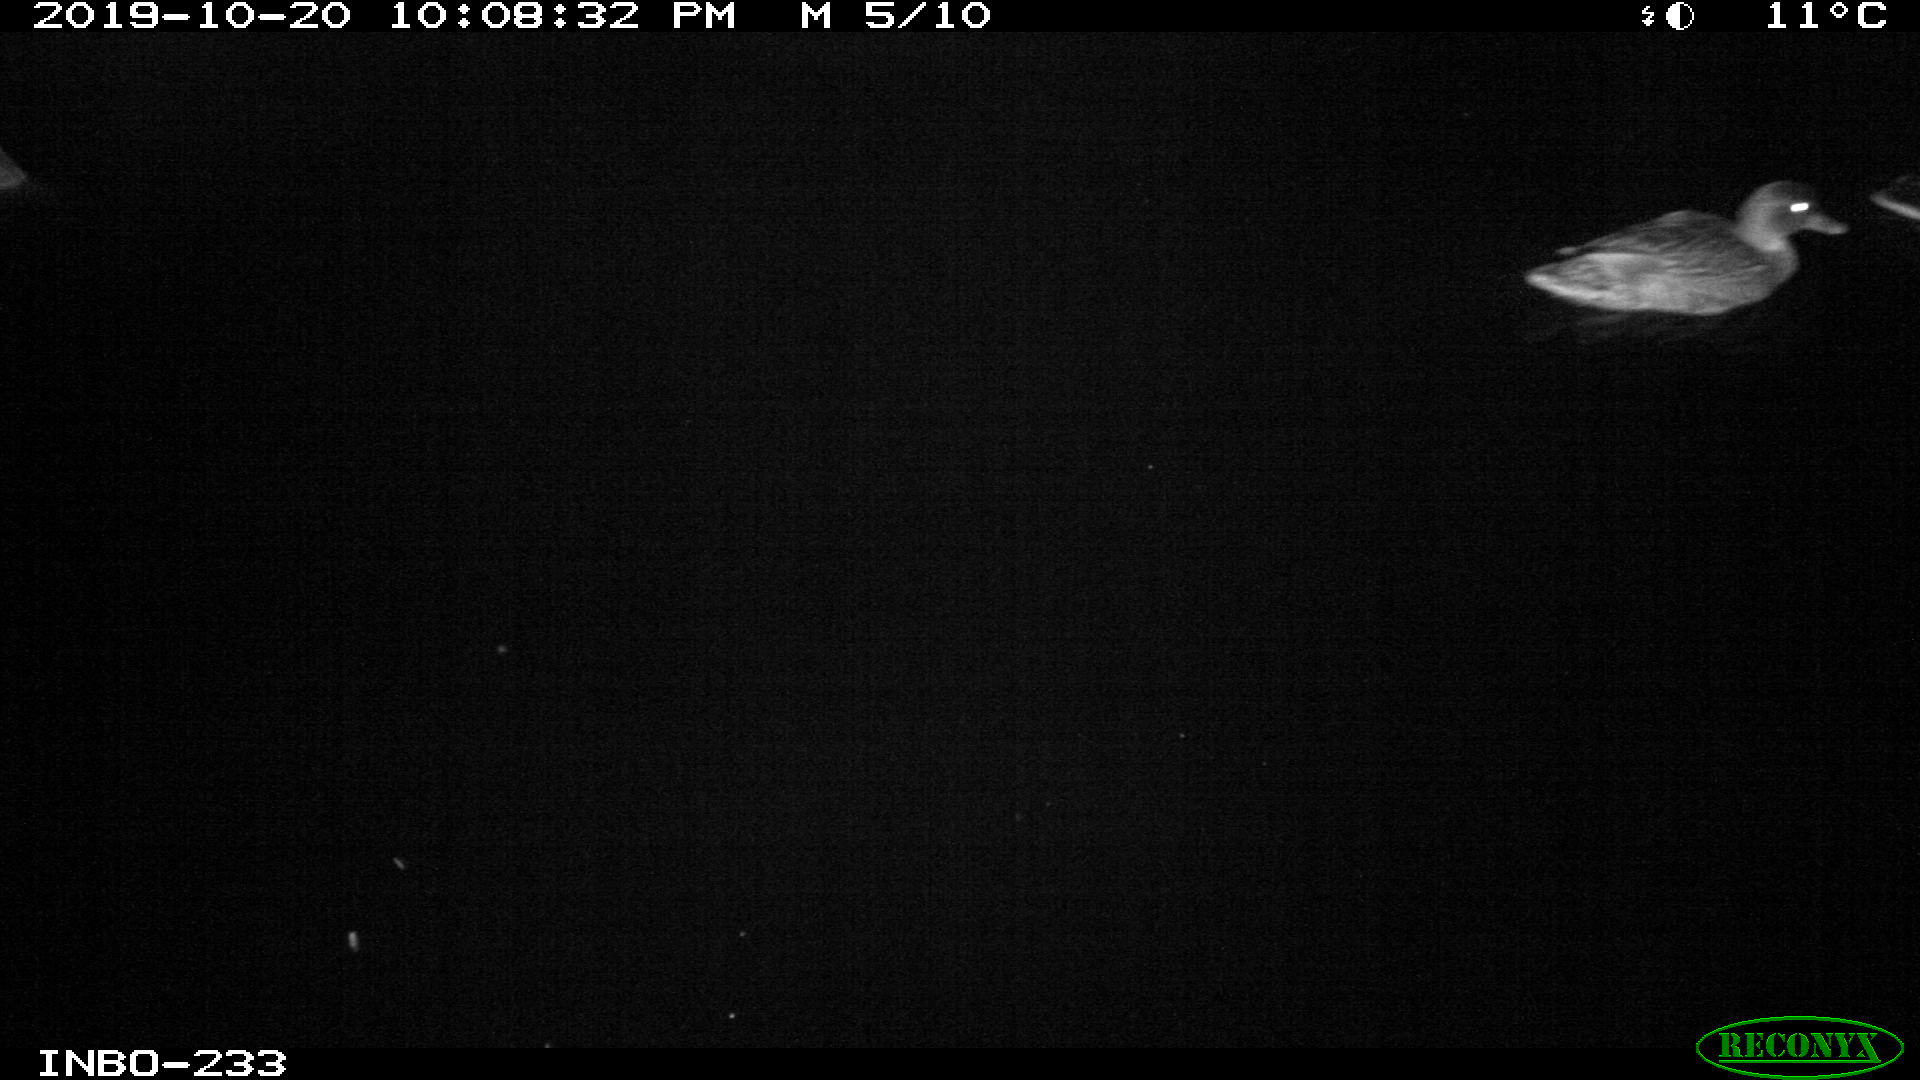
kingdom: Animalia
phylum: Chordata
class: Aves
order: Anseriformes
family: Anatidae
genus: Anas
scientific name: Anas platyrhynchos
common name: Mallard
